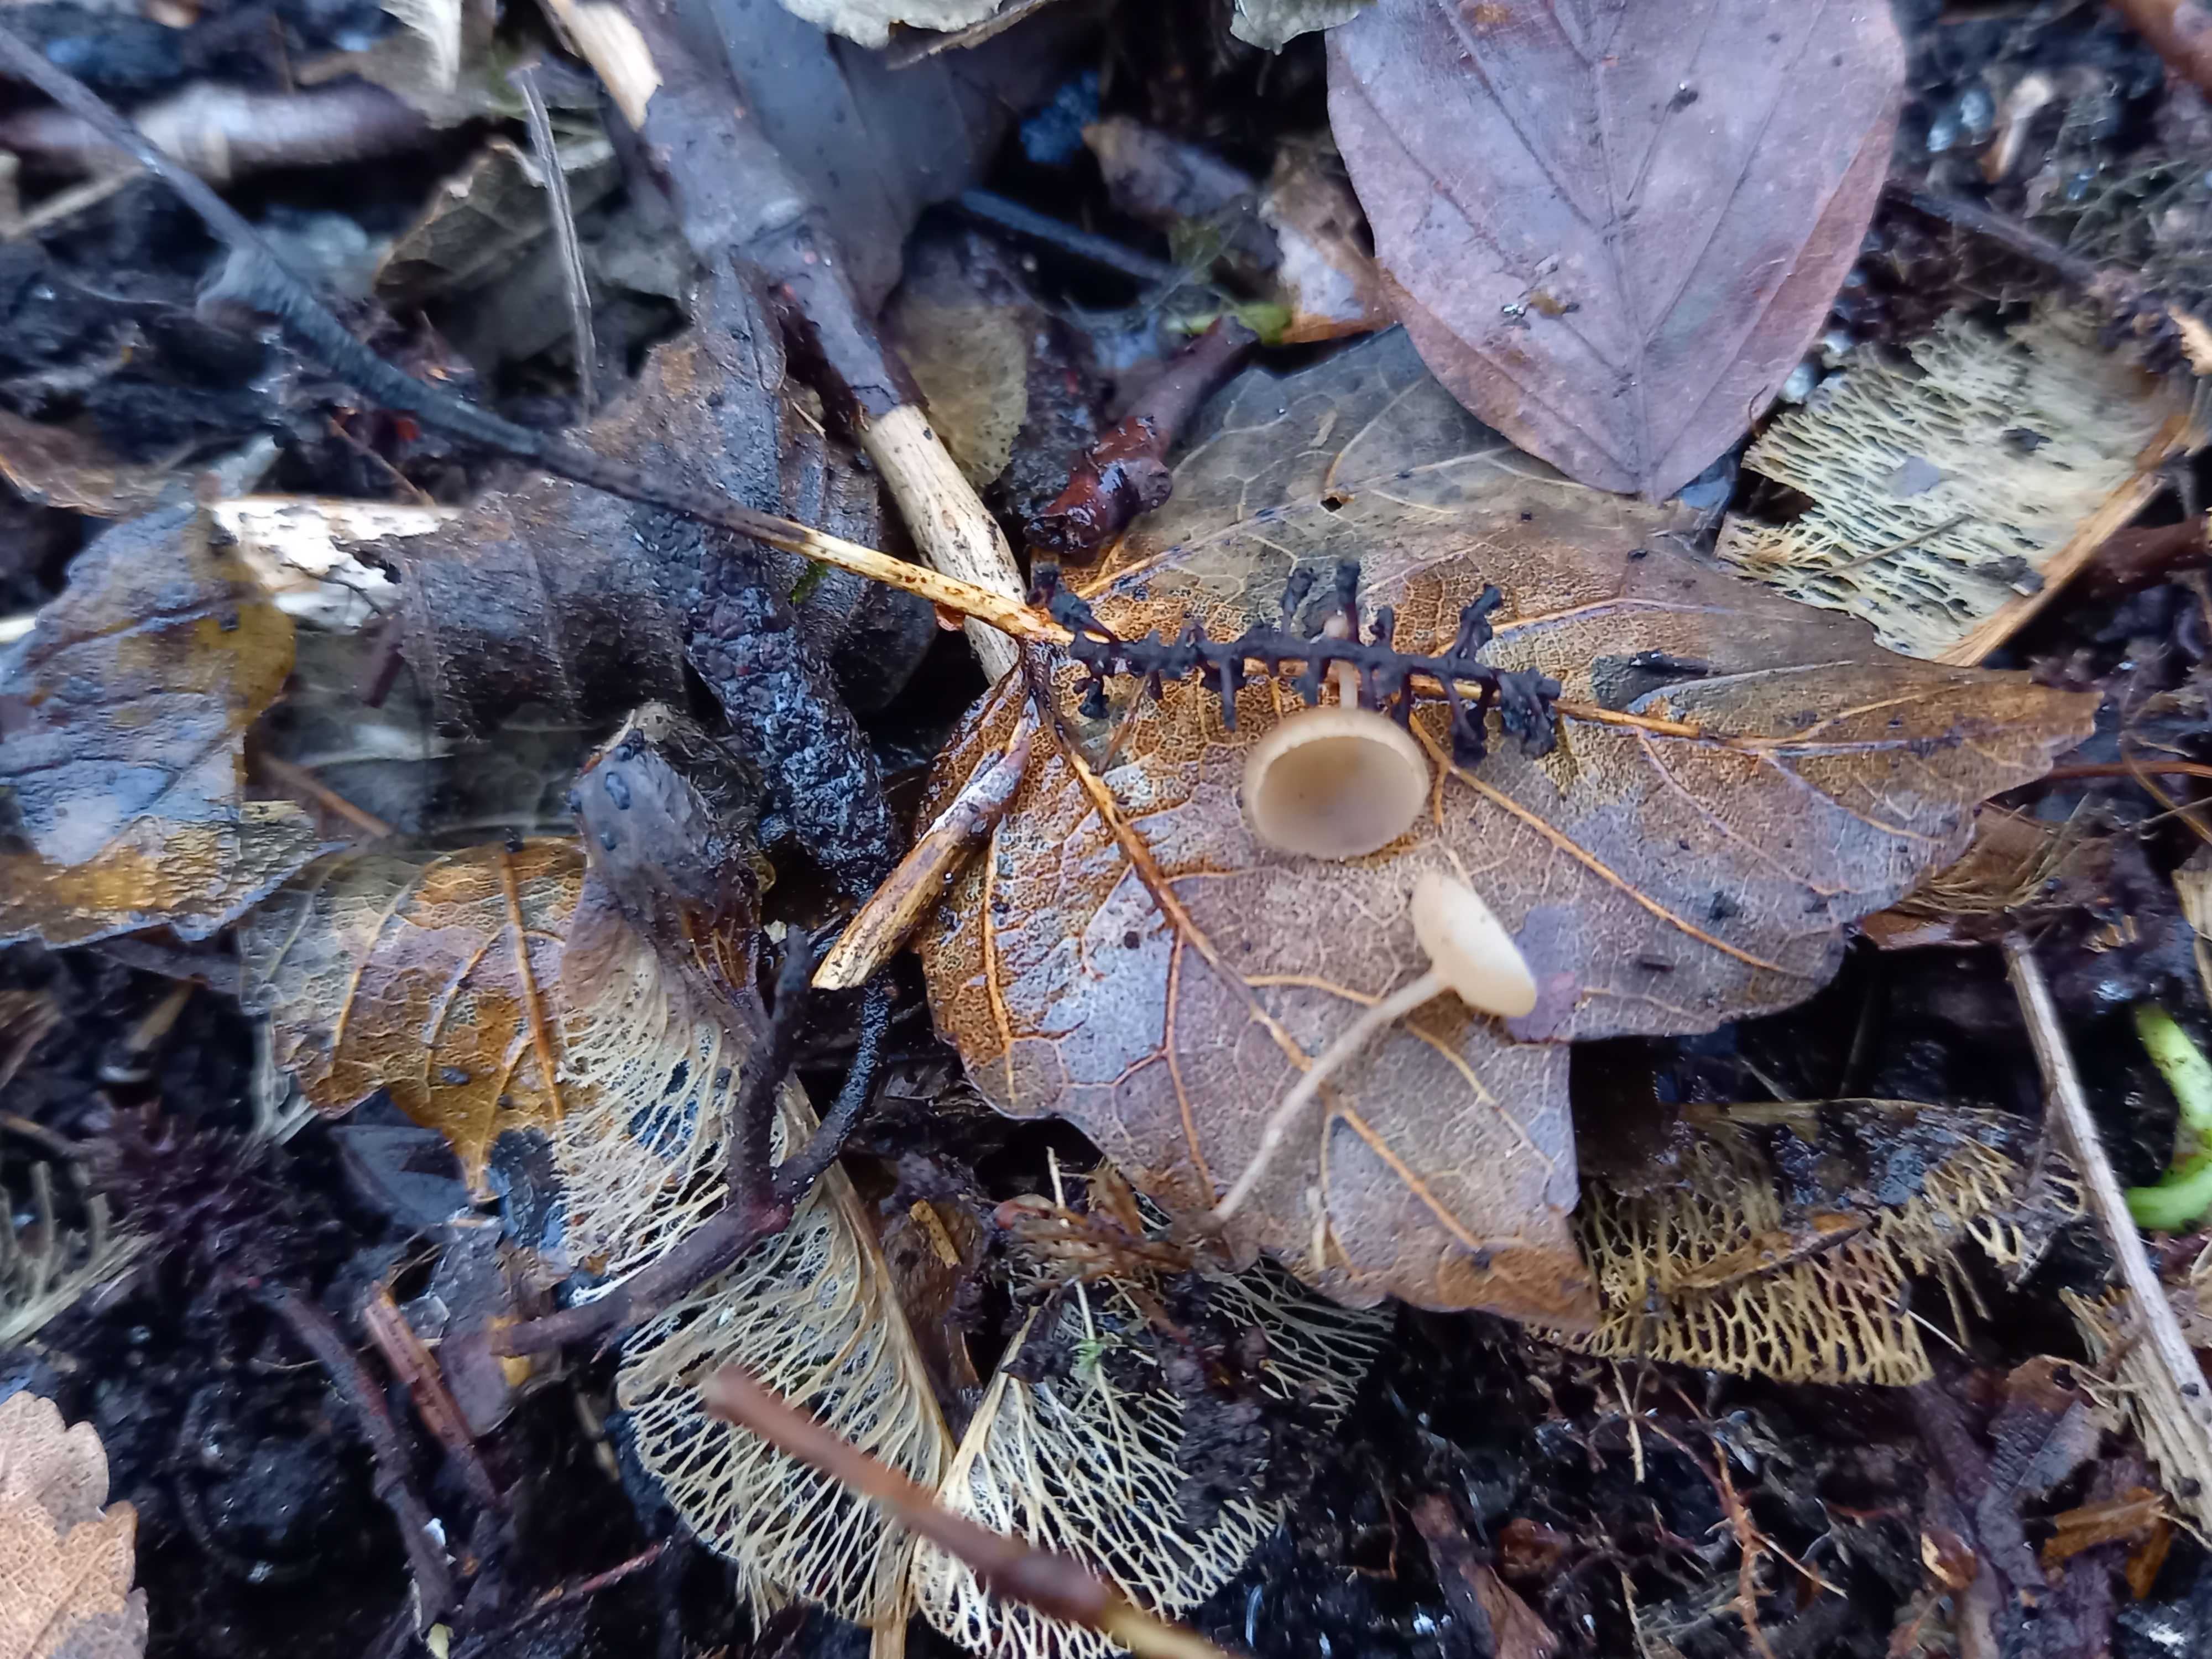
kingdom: Fungi
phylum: Ascomycota
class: Leotiomycetes
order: Helotiales
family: Sclerotiniaceae
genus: Ciboria
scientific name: Ciboria amentacea
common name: ellerakle-knoldskive
